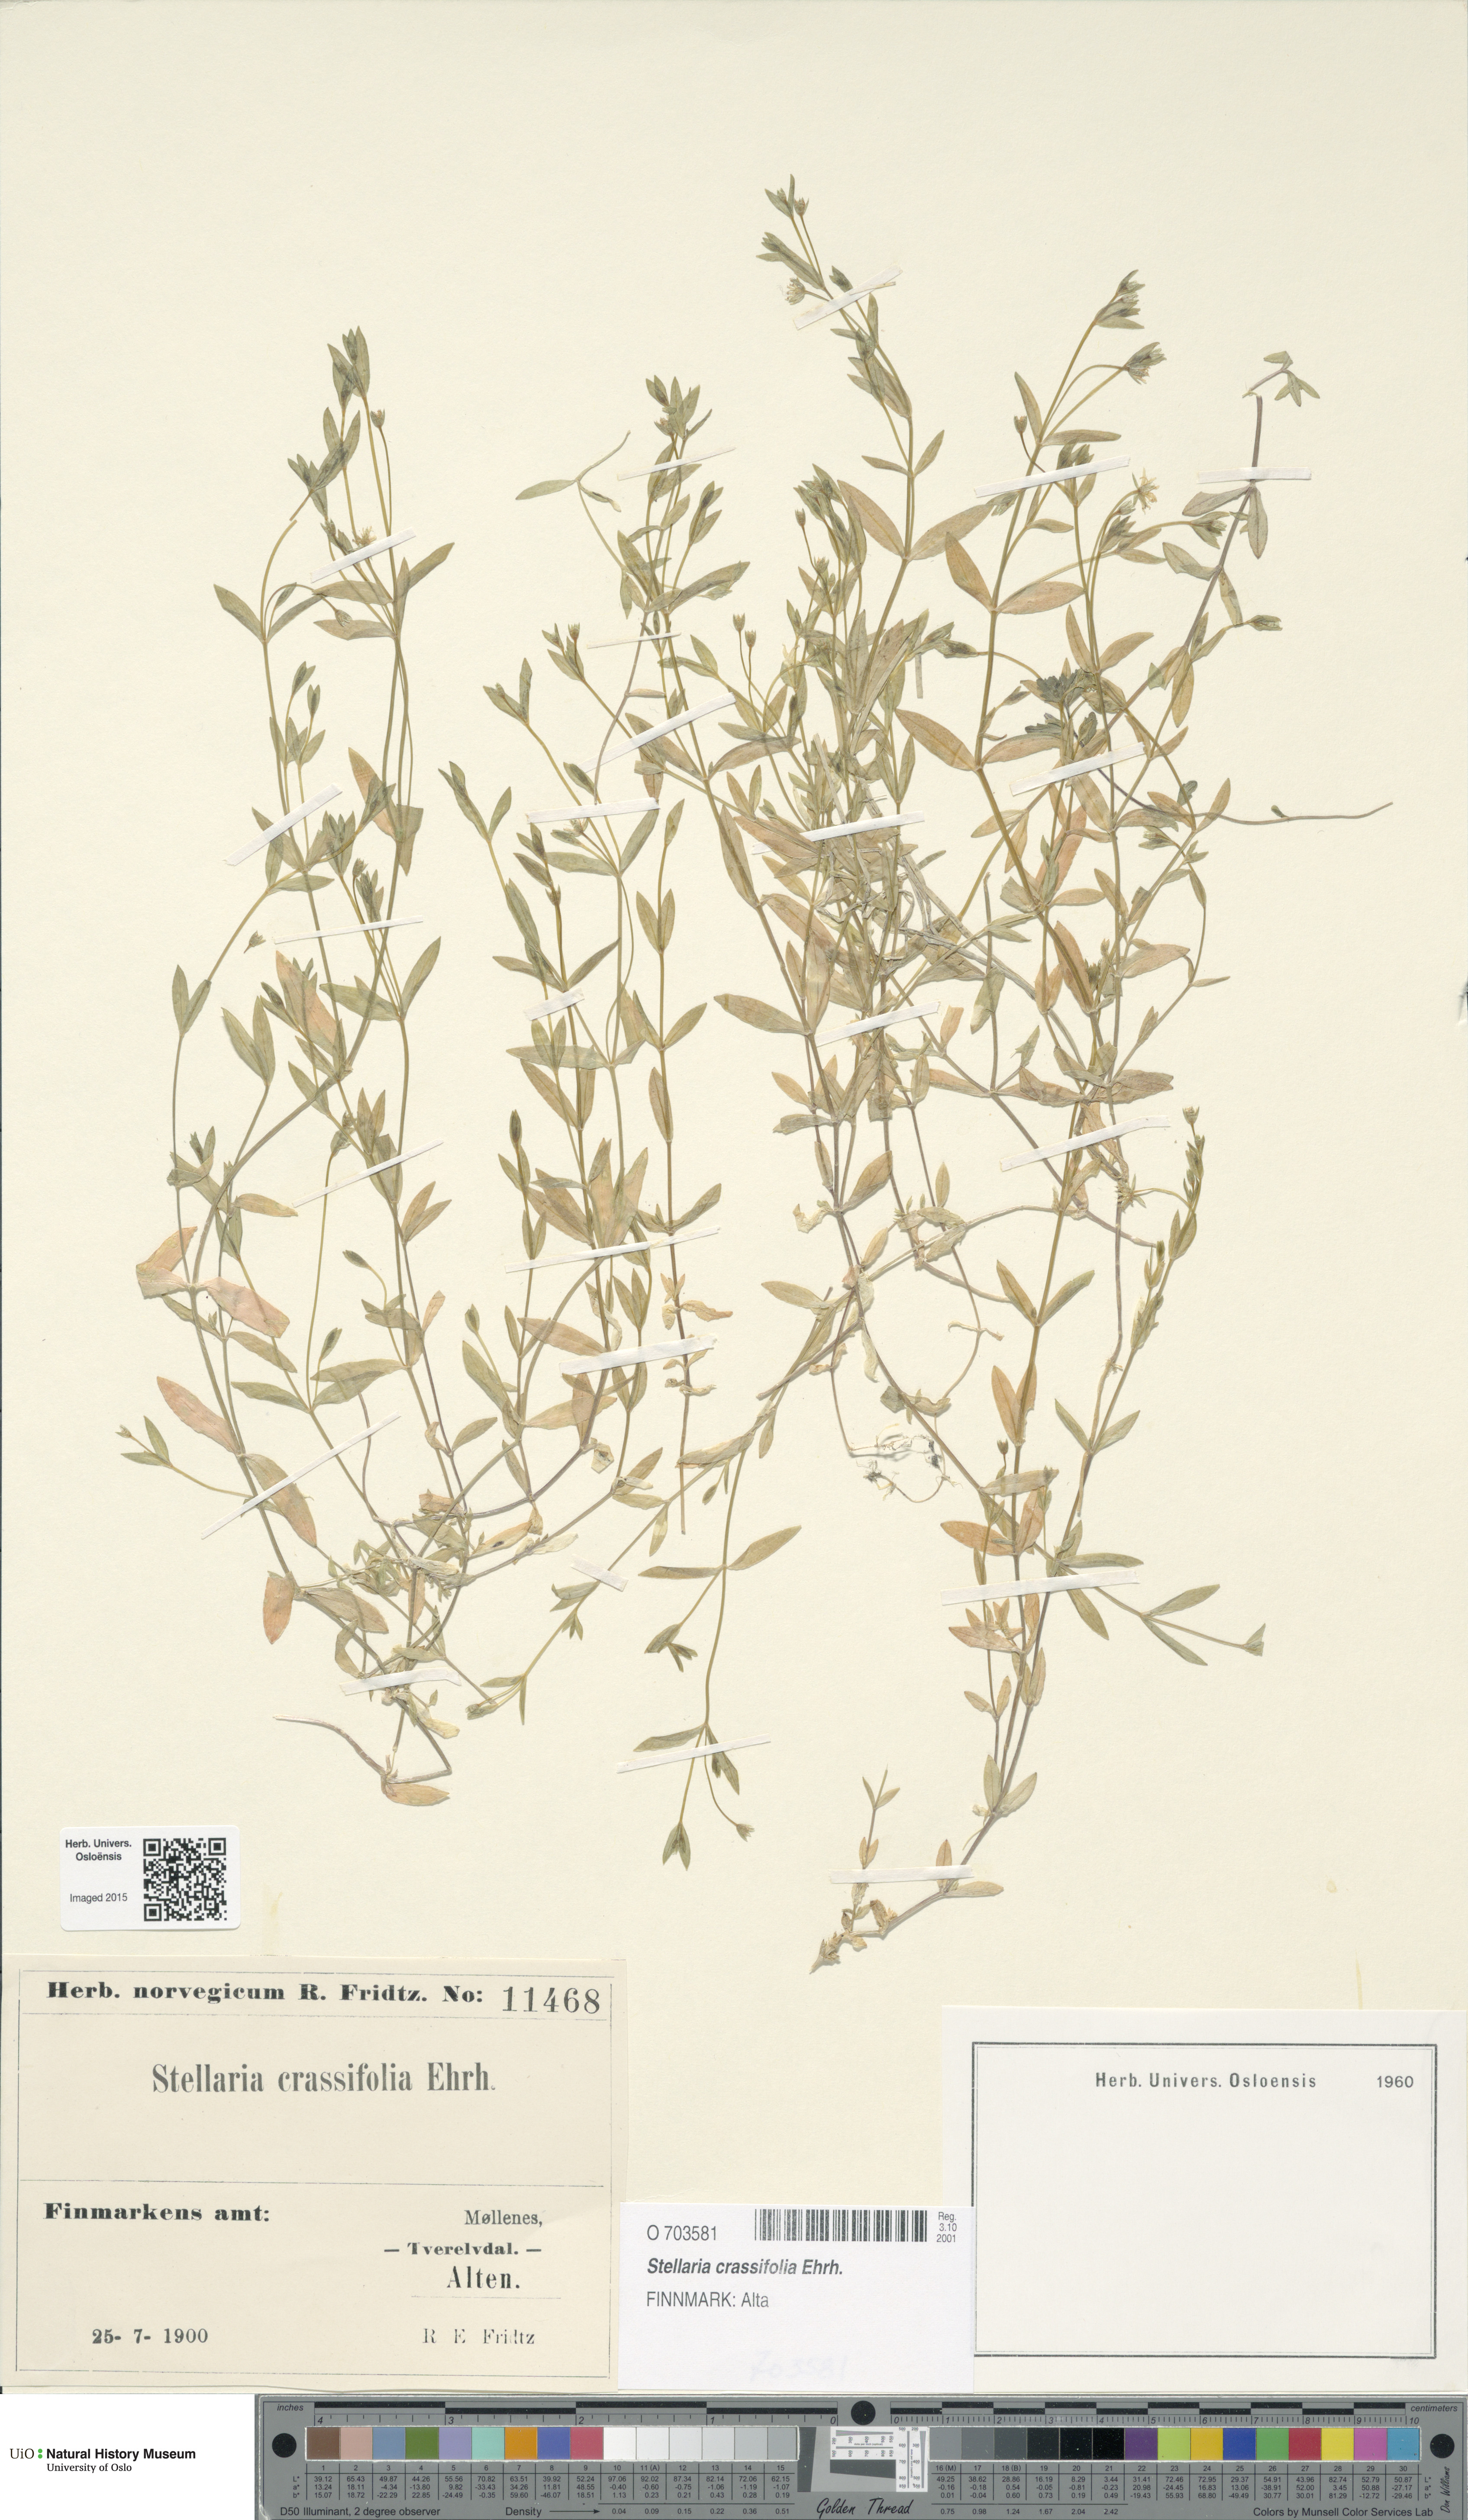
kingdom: Plantae
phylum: Tracheophyta
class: Magnoliopsida
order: Caryophyllales
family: Caryophyllaceae
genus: Stellaria
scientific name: Stellaria crassifolia
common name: Fleshy starwort
